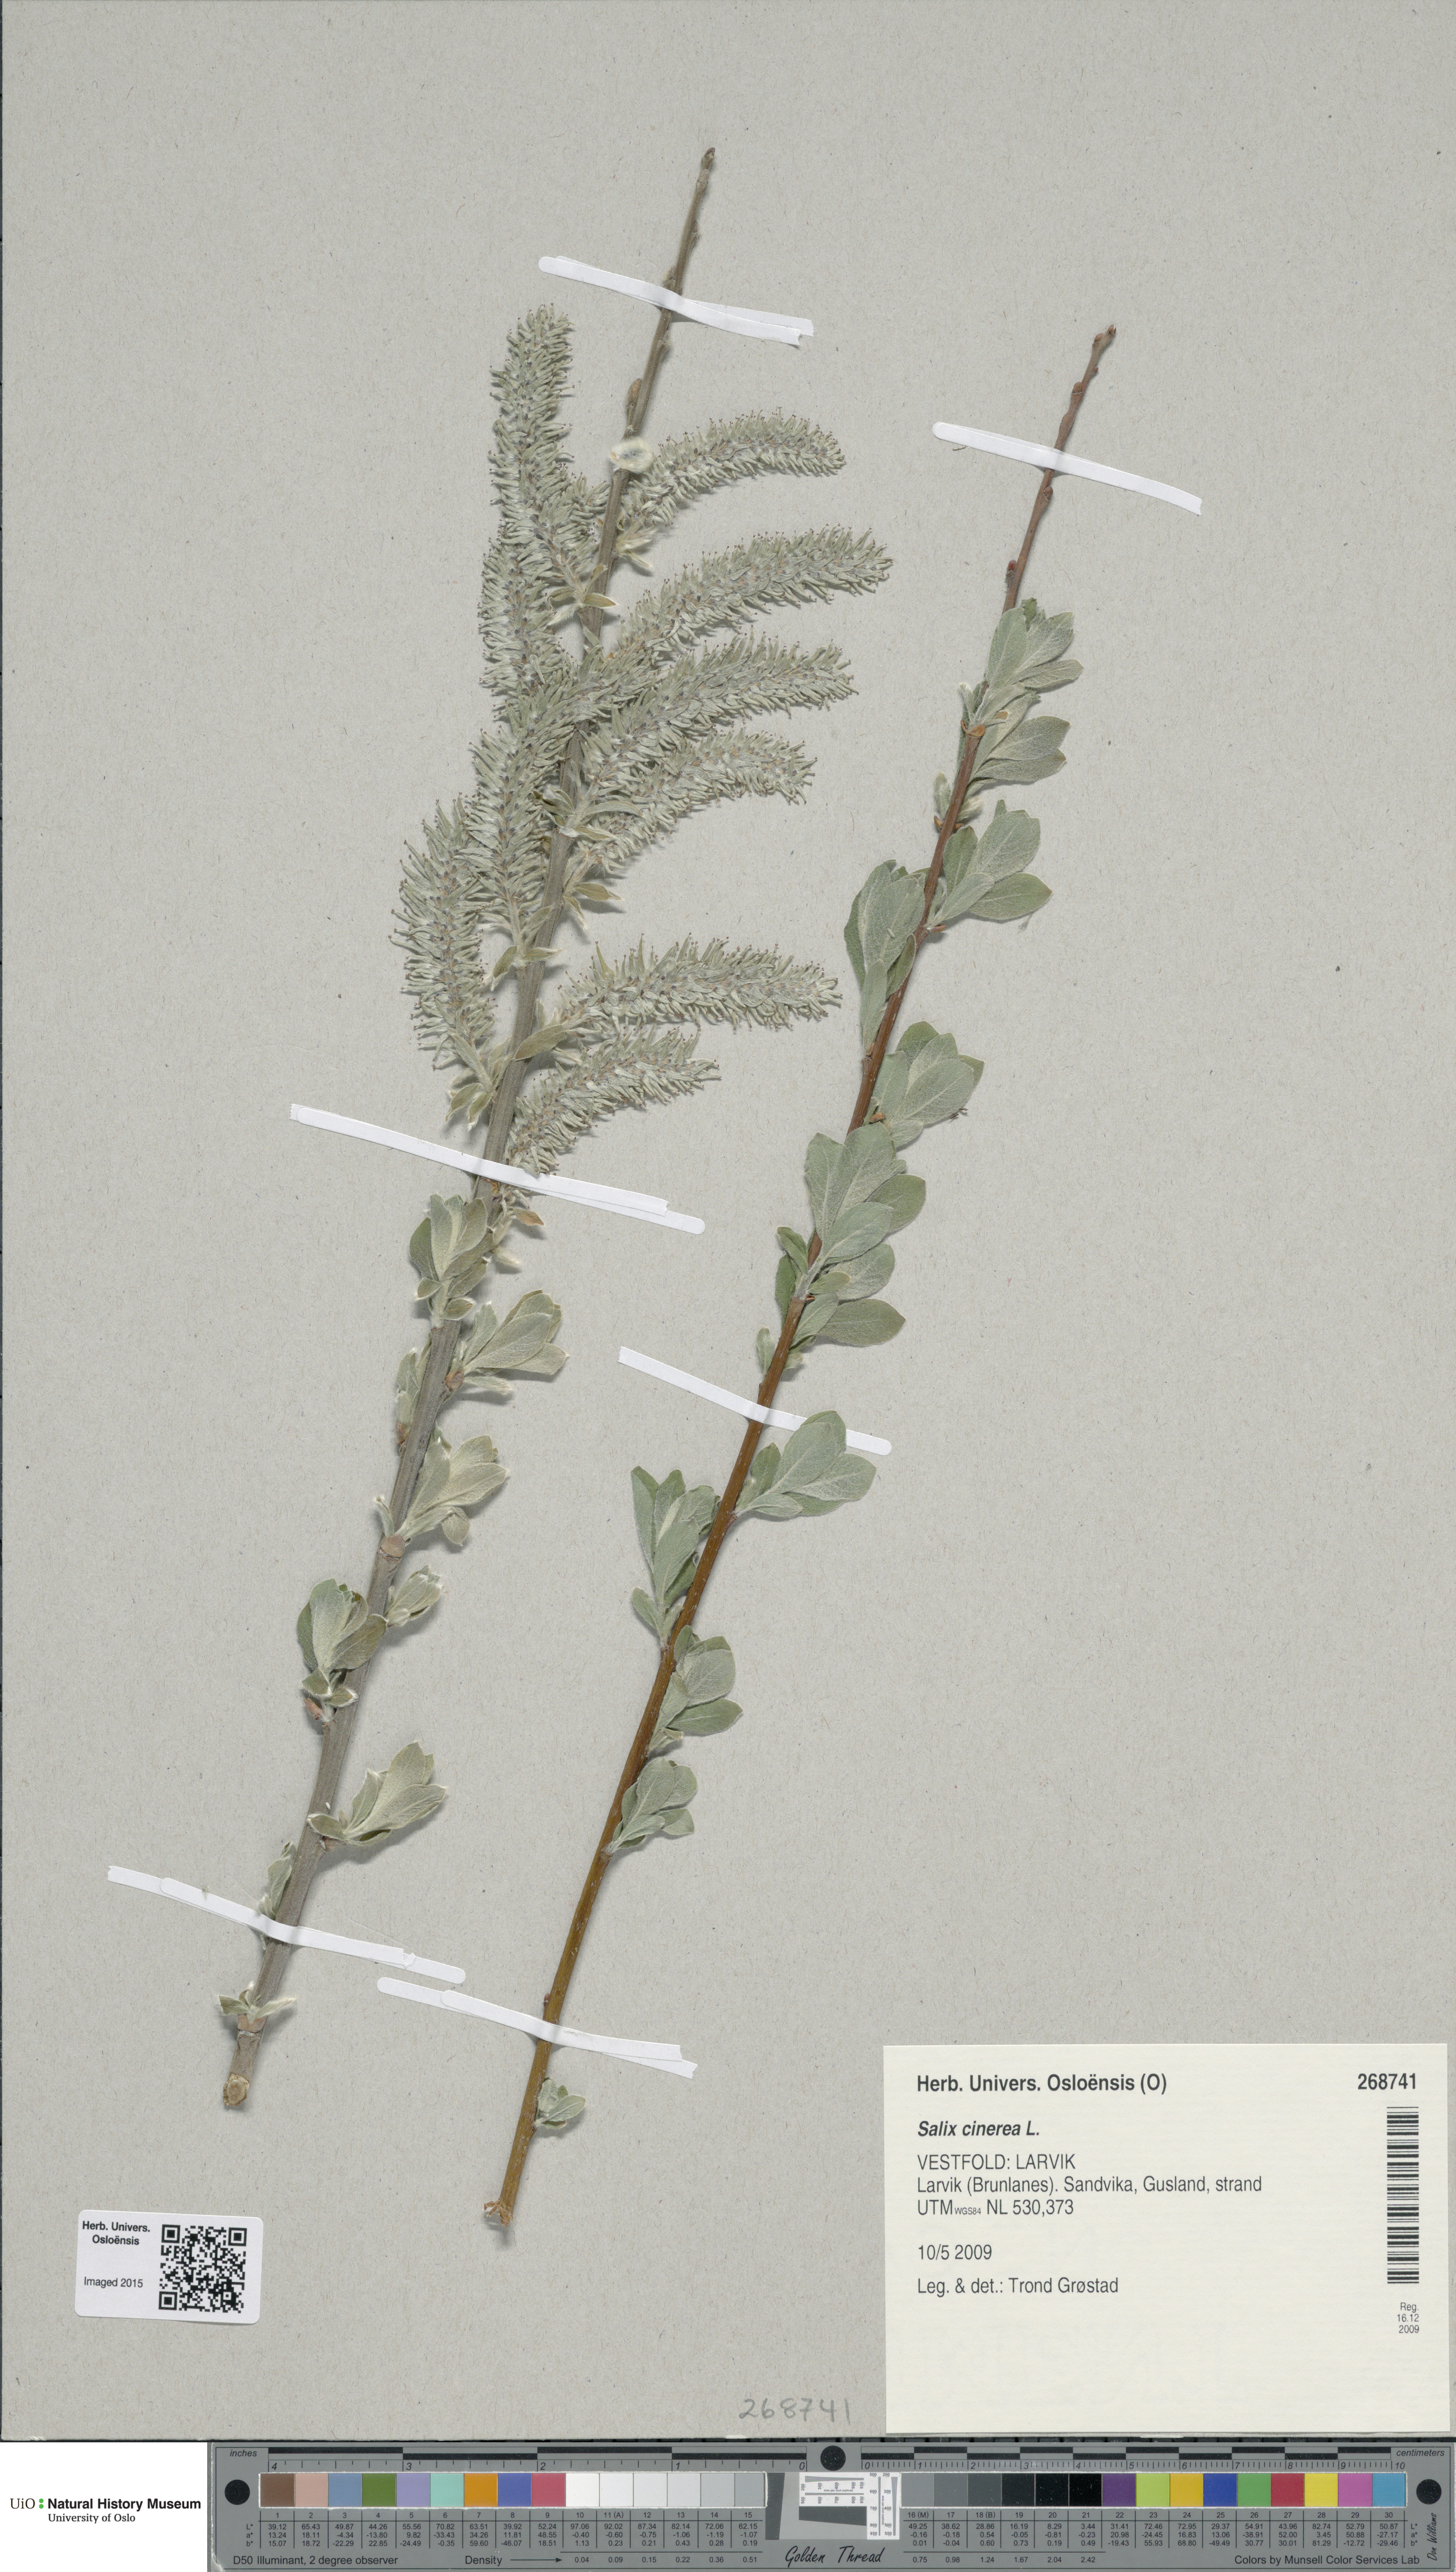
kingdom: Plantae
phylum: Tracheophyta
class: Magnoliopsida
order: Malpighiales
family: Salicaceae
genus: Salix
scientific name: Salix cinerea
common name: Common sallow
